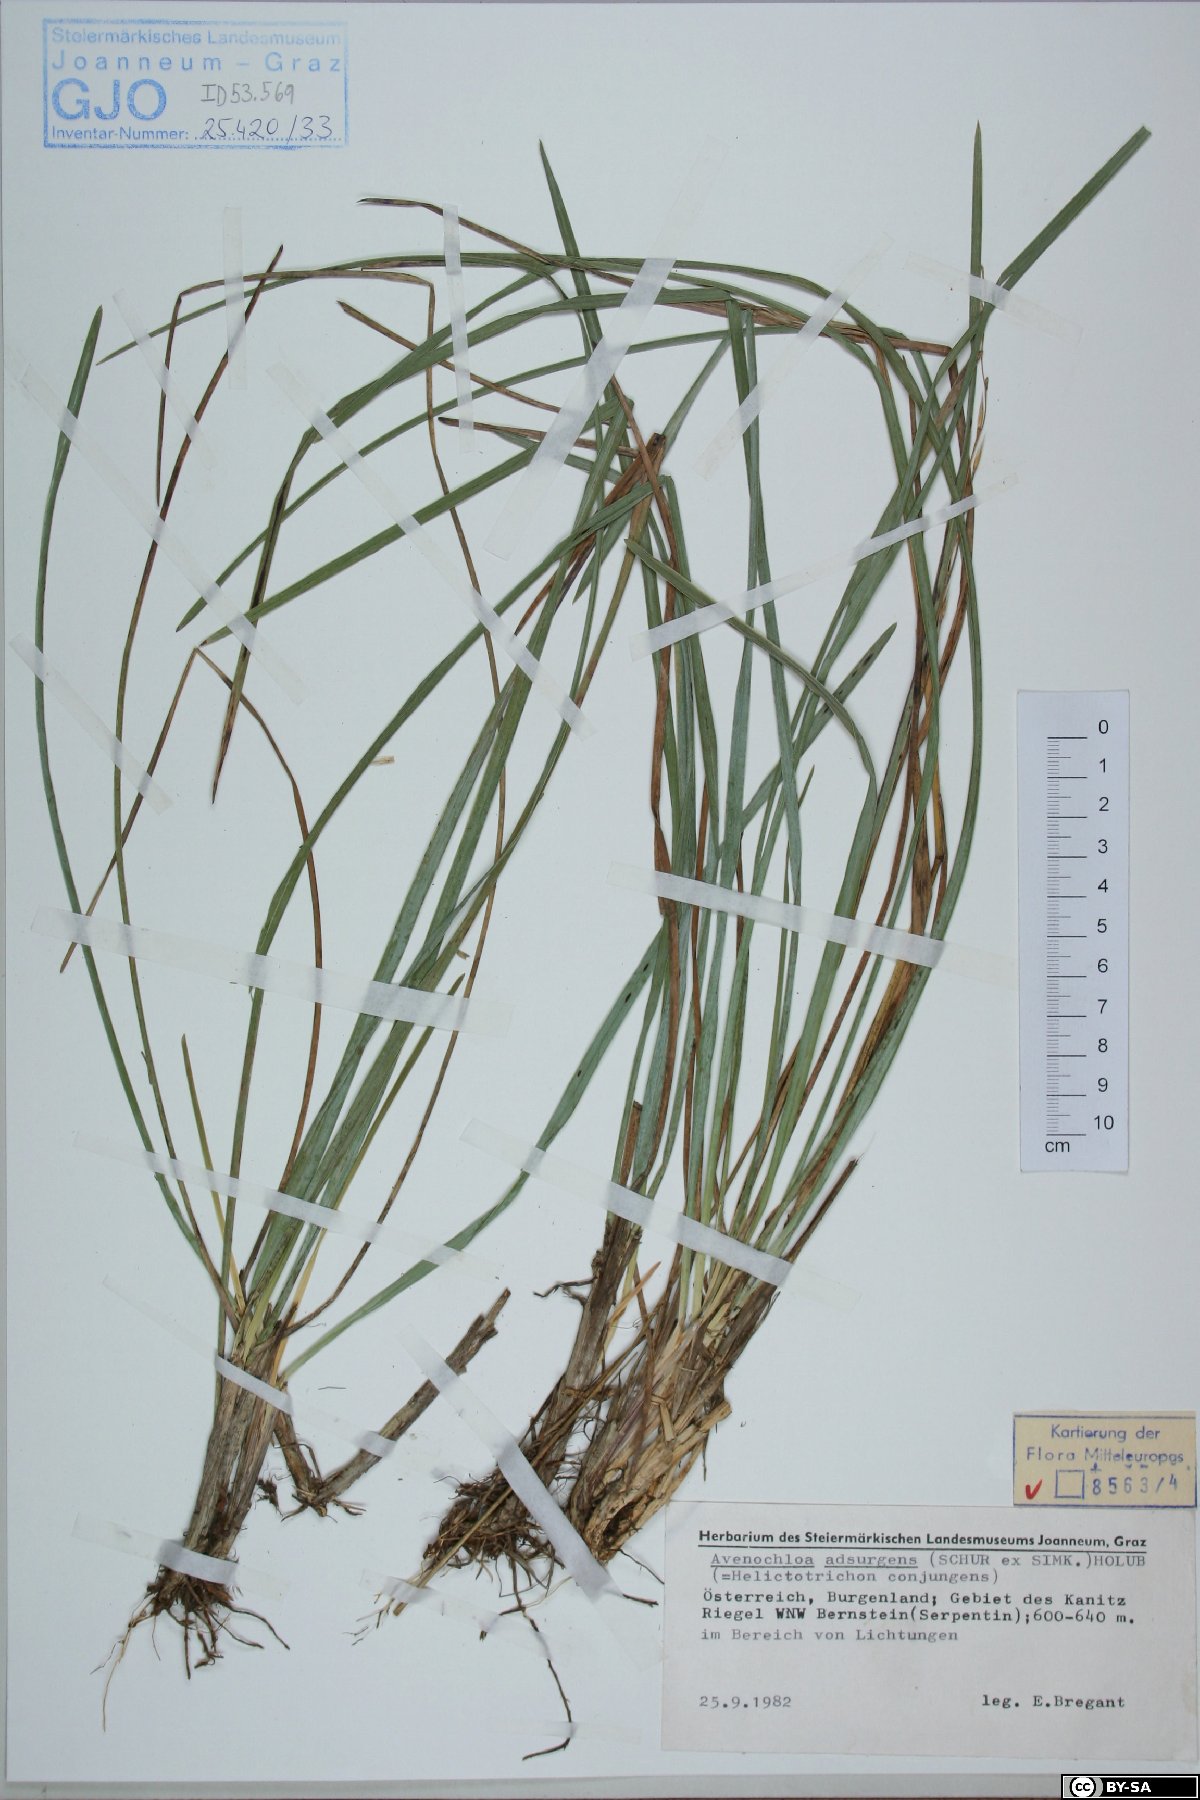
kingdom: Plantae
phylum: Tracheophyta
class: Liliopsida
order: Poales
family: Poaceae
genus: Helictochloa
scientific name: Helictochloa praeusta
